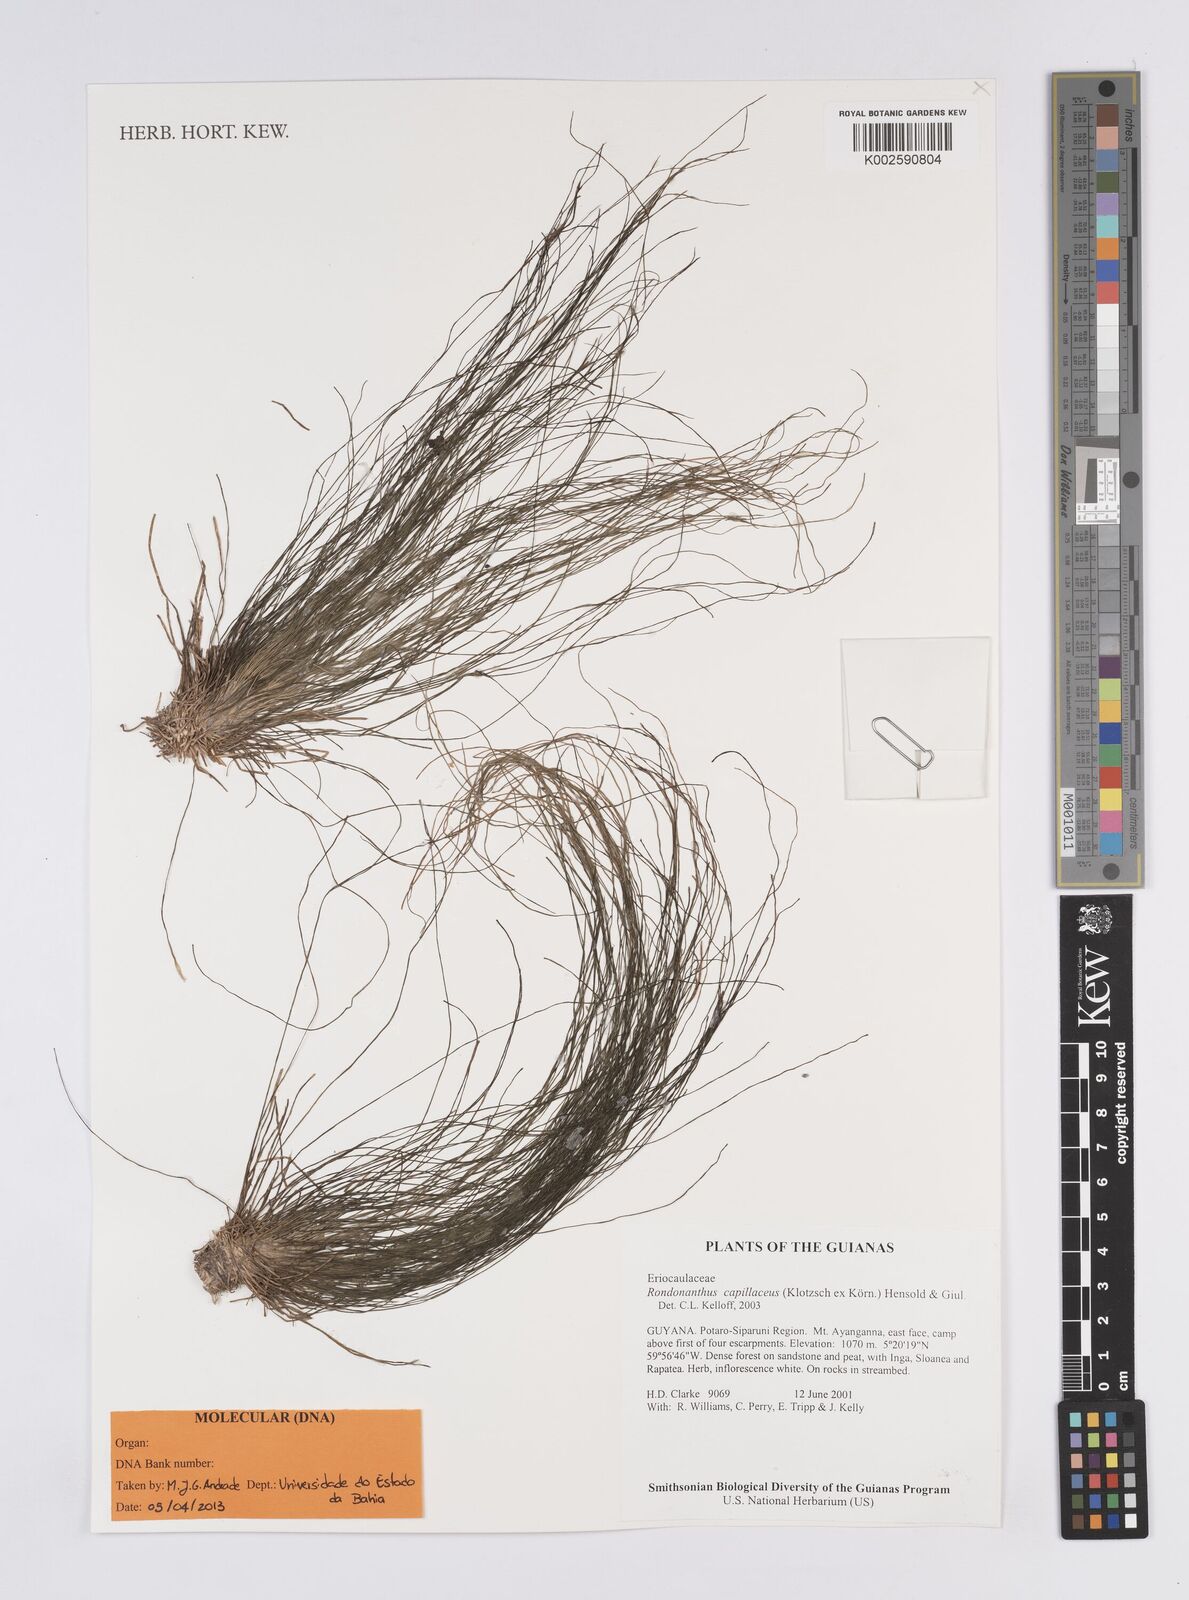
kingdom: Plantae
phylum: Tracheophyta
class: Liliopsida
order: Poales
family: Eriocaulaceae
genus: Rondonanthus
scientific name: Rondonanthus capillaceus
